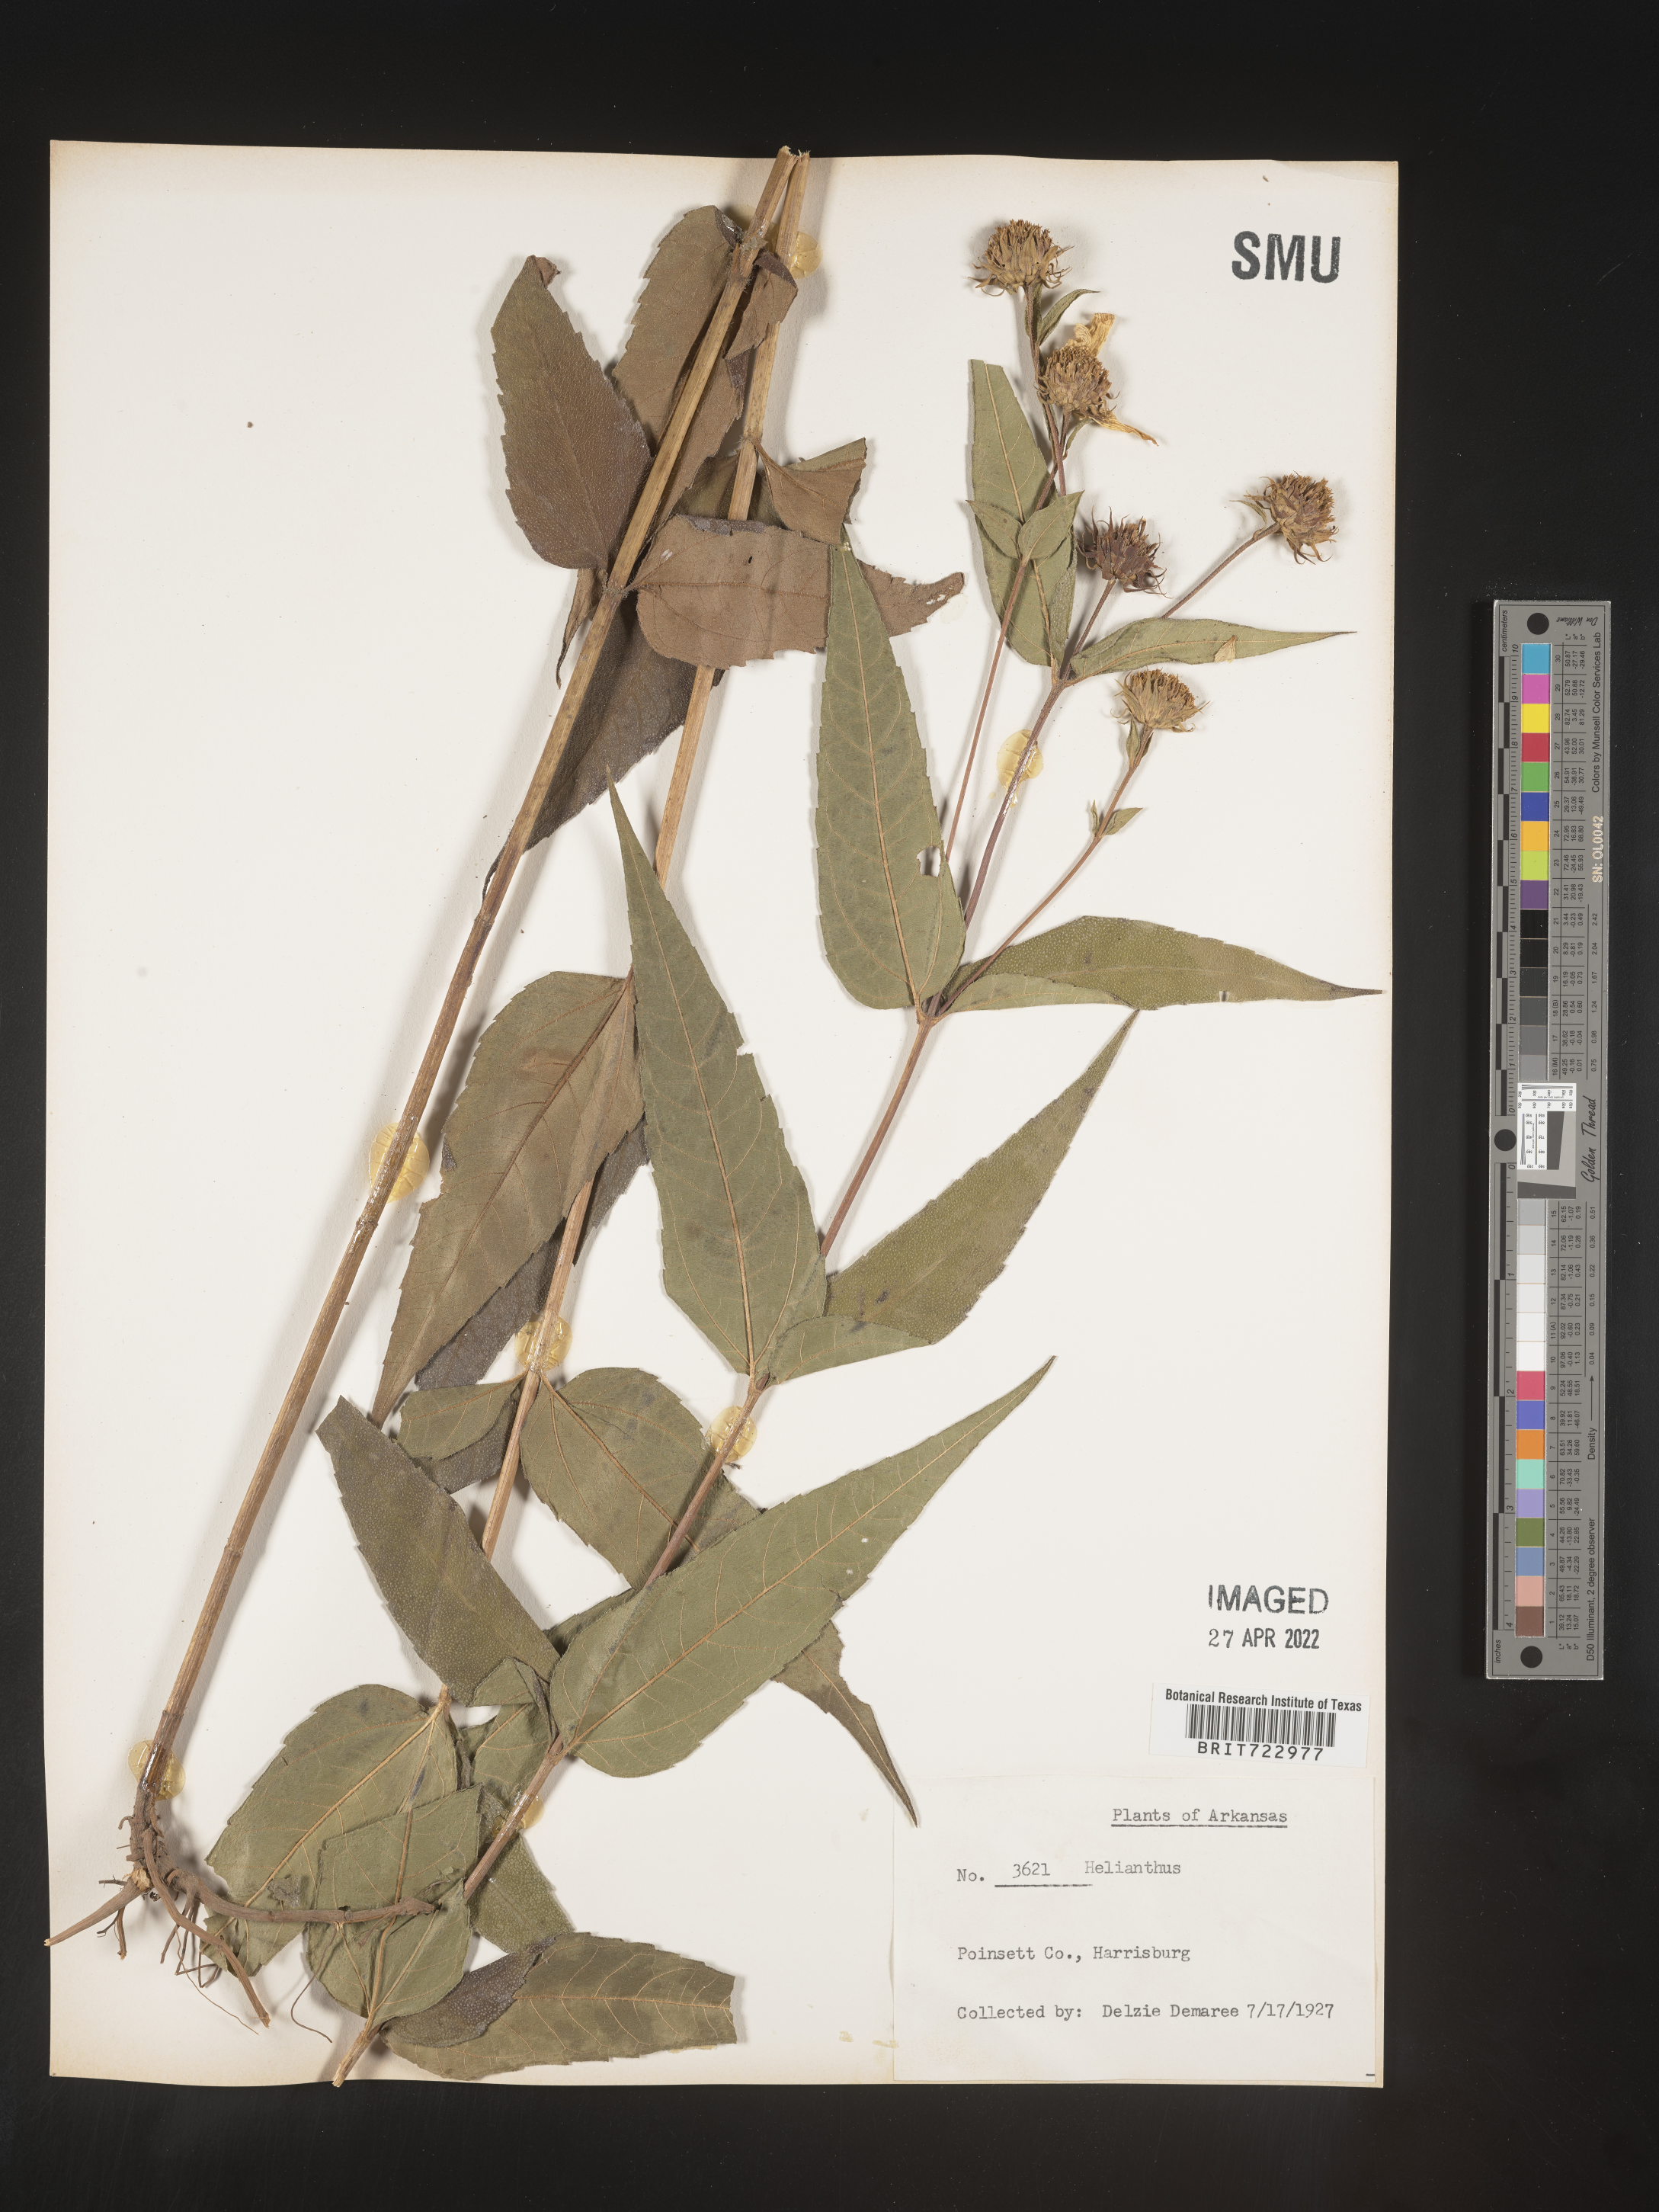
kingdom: Plantae
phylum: Tracheophyta
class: Magnoliopsida
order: Asterales
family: Asteraceae
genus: Helianthus
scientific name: Helianthus
